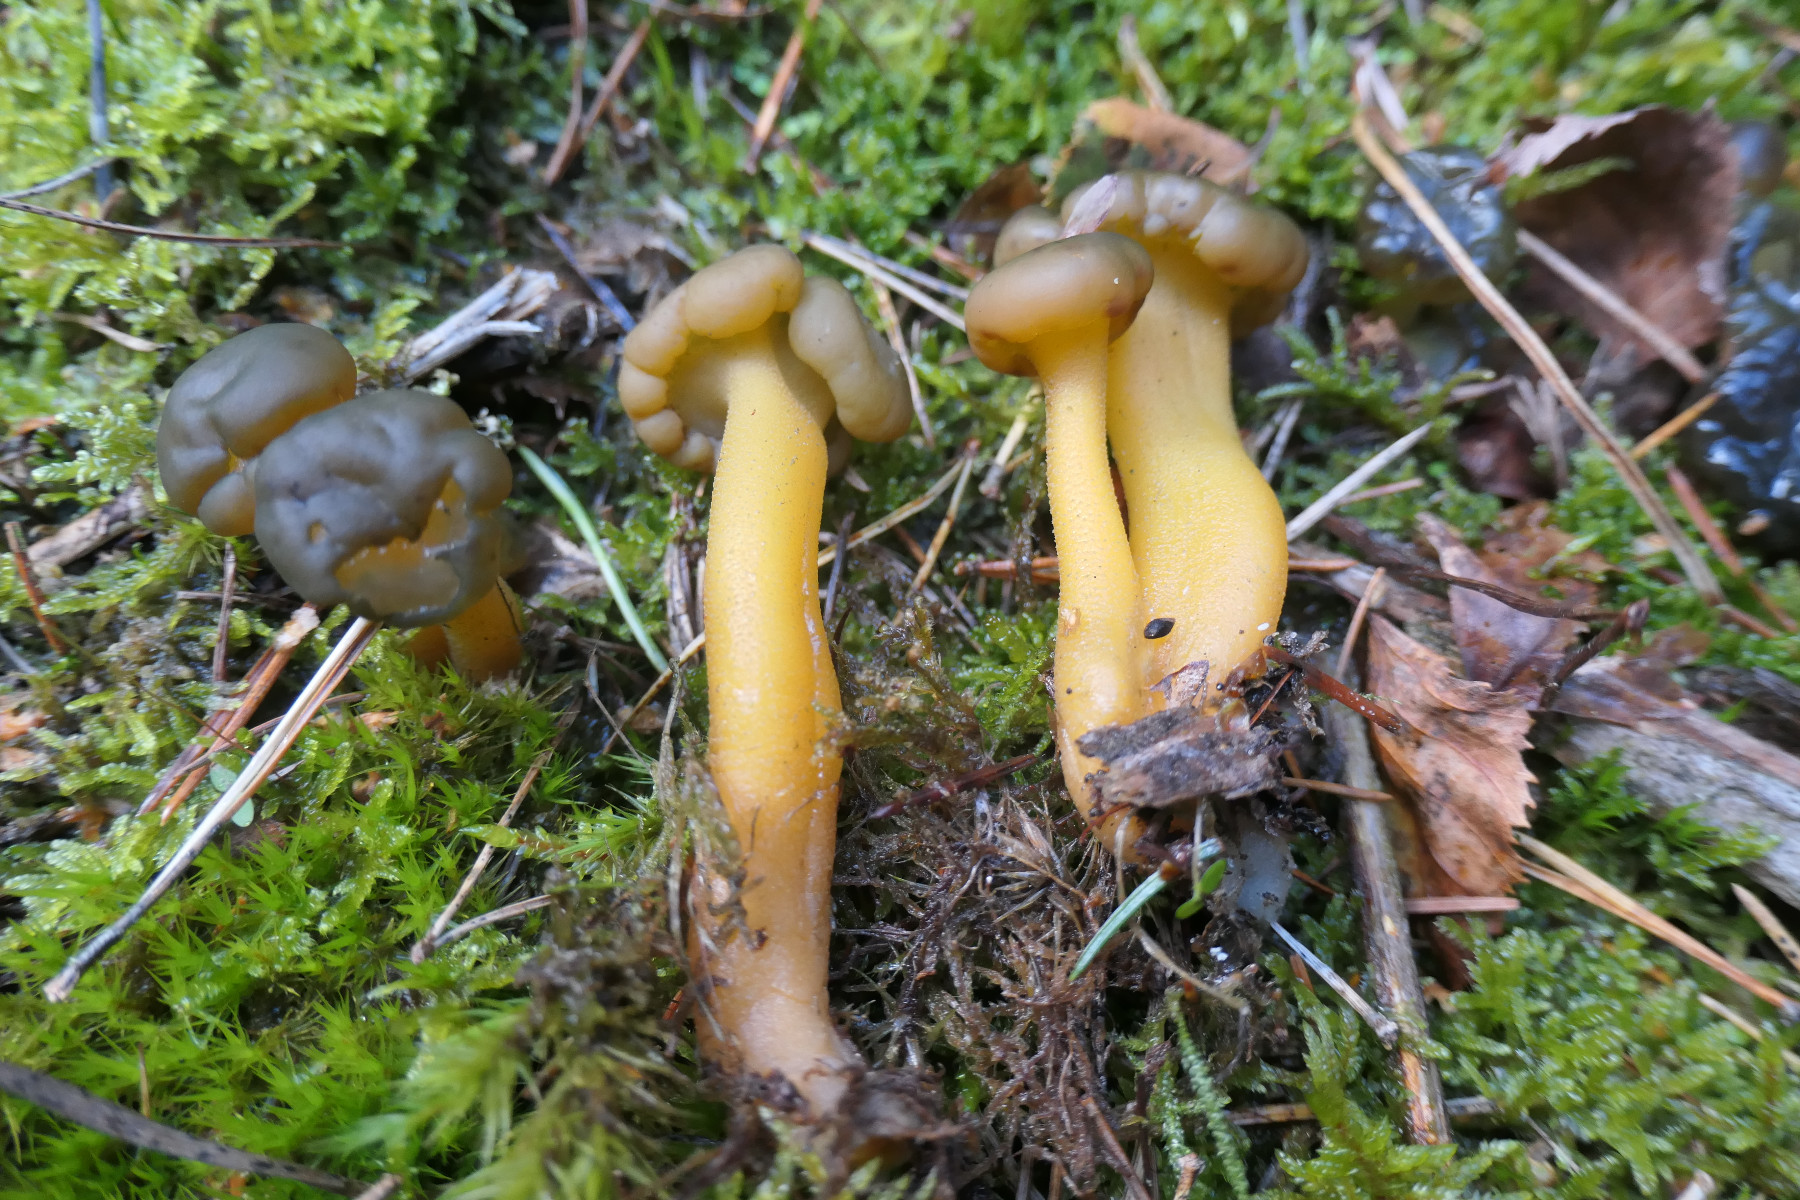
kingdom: Fungi
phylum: Ascomycota
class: Leotiomycetes
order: Leotiales
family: Leotiaceae
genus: Leotia
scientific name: Leotia lubrica
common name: ravsvamp
